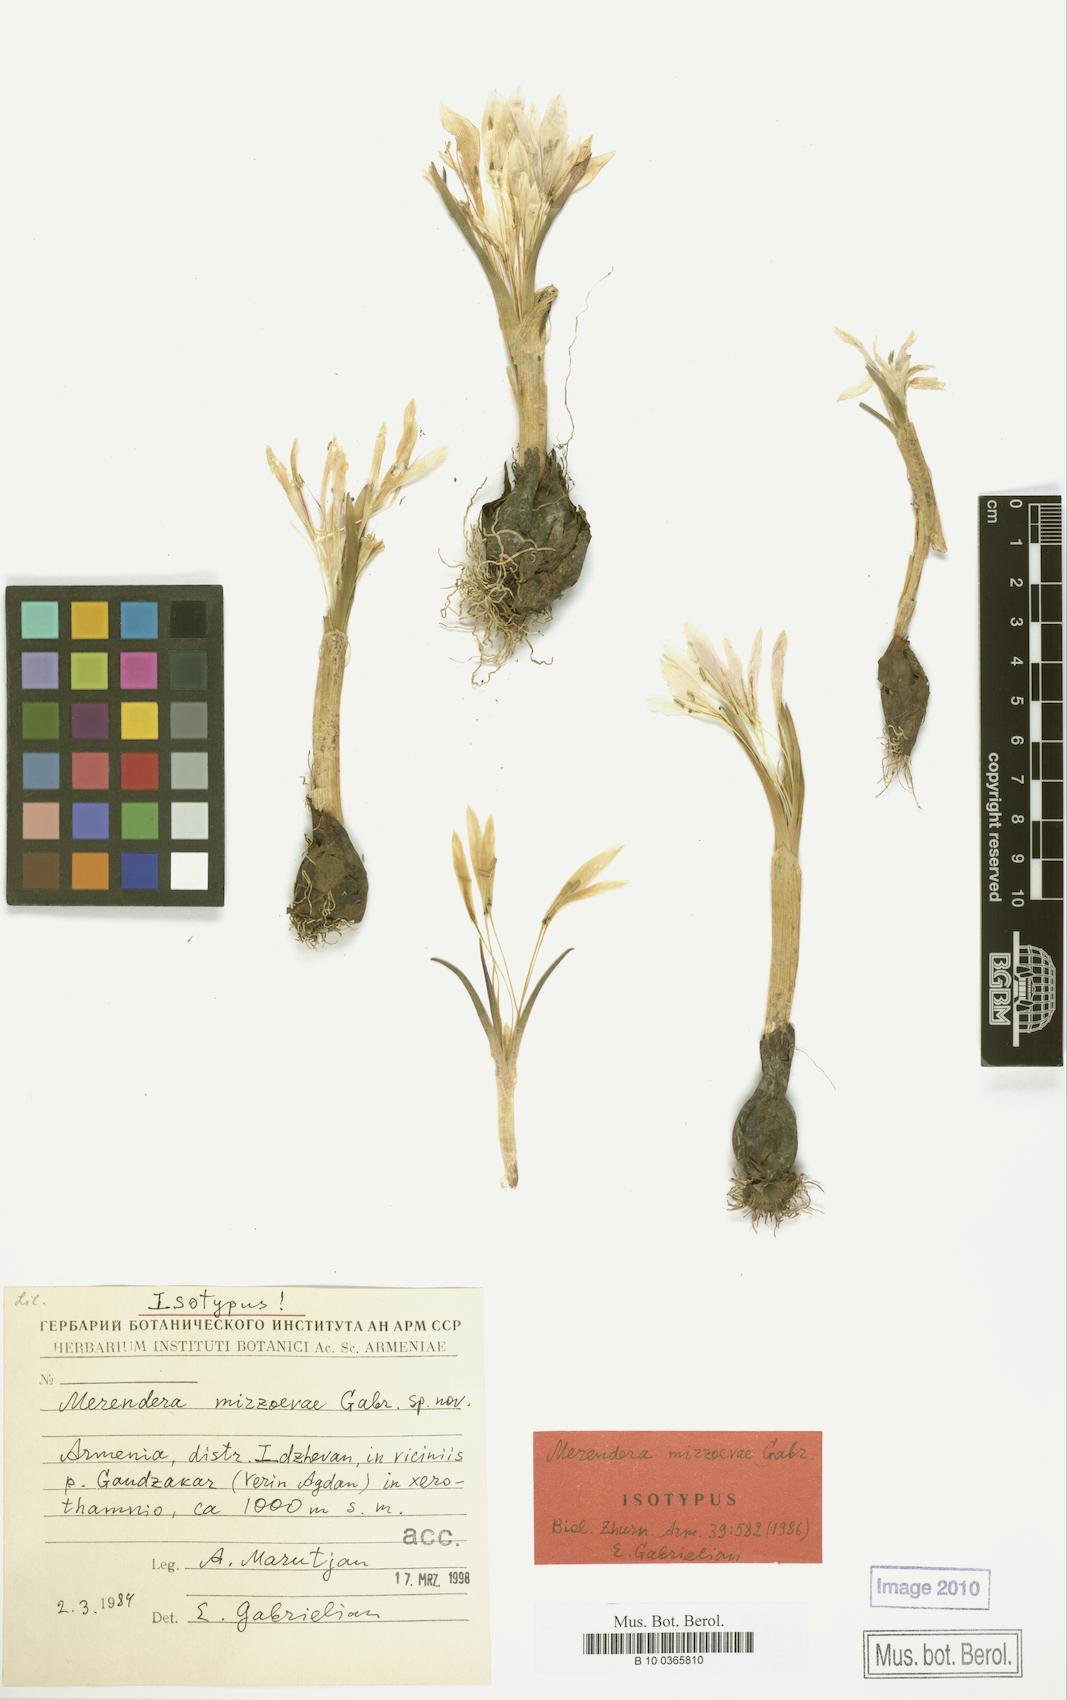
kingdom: Plantae
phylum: Tracheophyta
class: Liliopsida
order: Liliales
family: Colchicaceae
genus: Colchicum
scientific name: Colchicum trigynum
